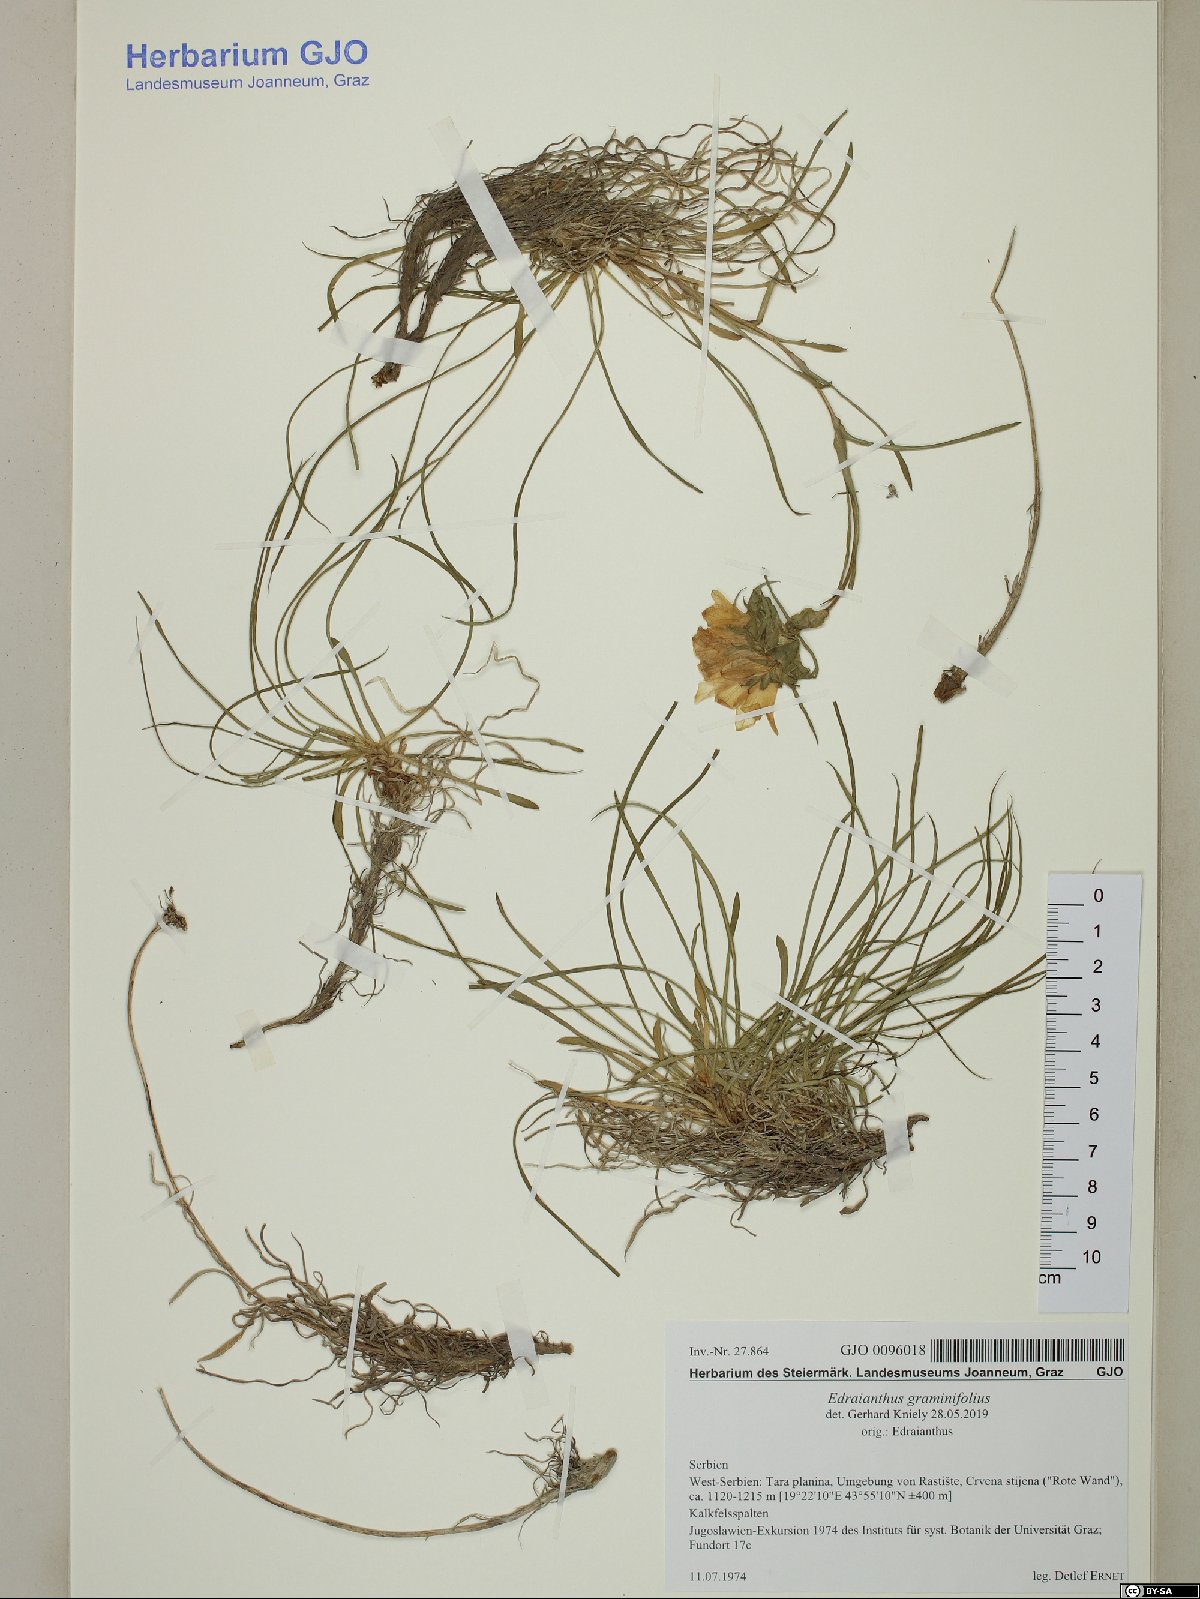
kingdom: Plantae
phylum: Tracheophyta
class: Magnoliopsida
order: Asterales
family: Campanulaceae
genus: Edraianthus
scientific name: Edraianthus graminifolius
